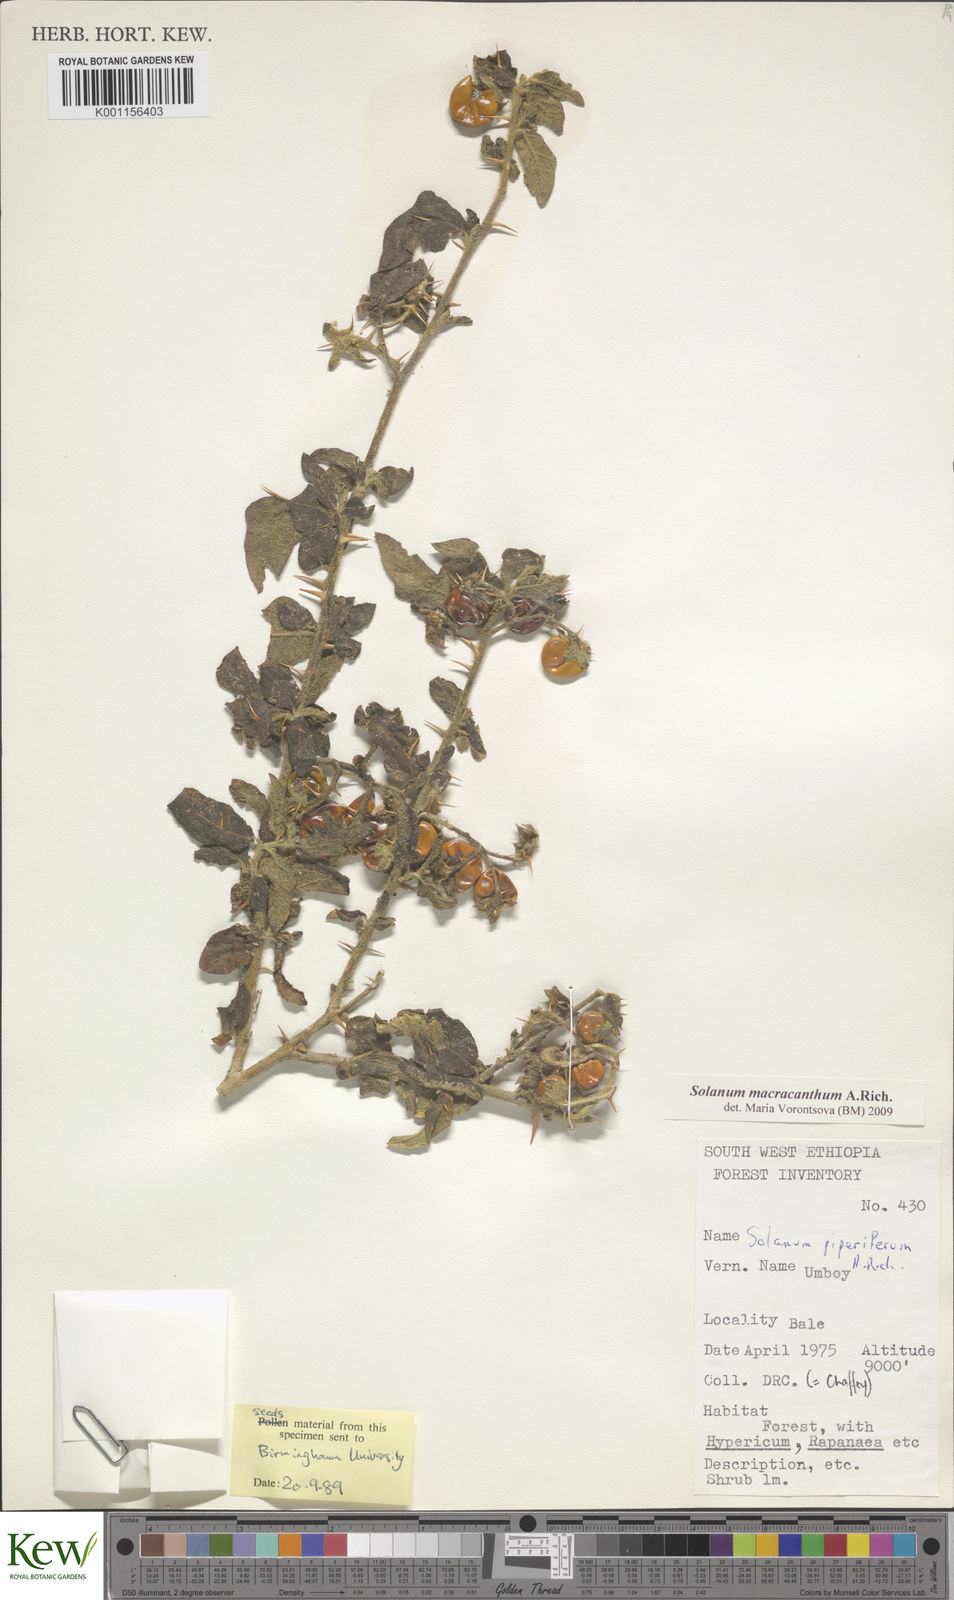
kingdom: Plantae
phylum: Tracheophyta
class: Magnoliopsida
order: Solanales
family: Solanaceae
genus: Solanum
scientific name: Solanum macracanthum
